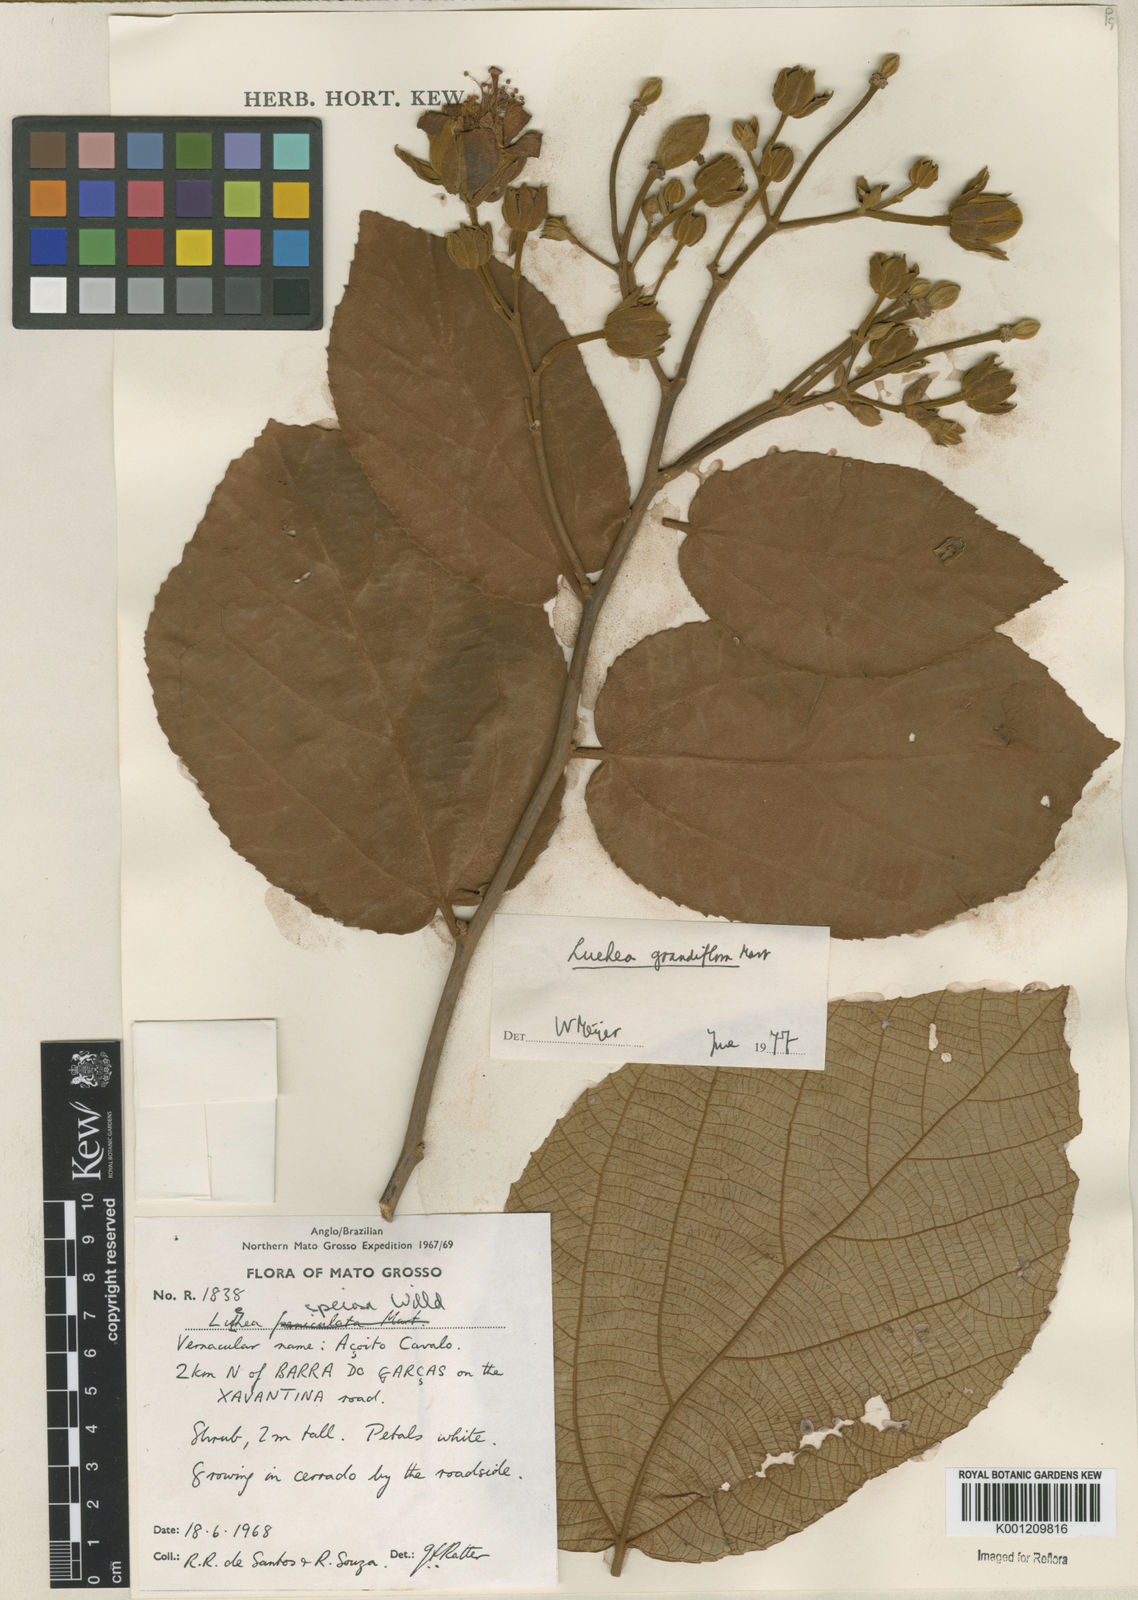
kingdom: Plantae
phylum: Tracheophyta
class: Magnoliopsida
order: Malvales
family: Malvaceae
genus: Luehea
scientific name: Luehea grandiflora
